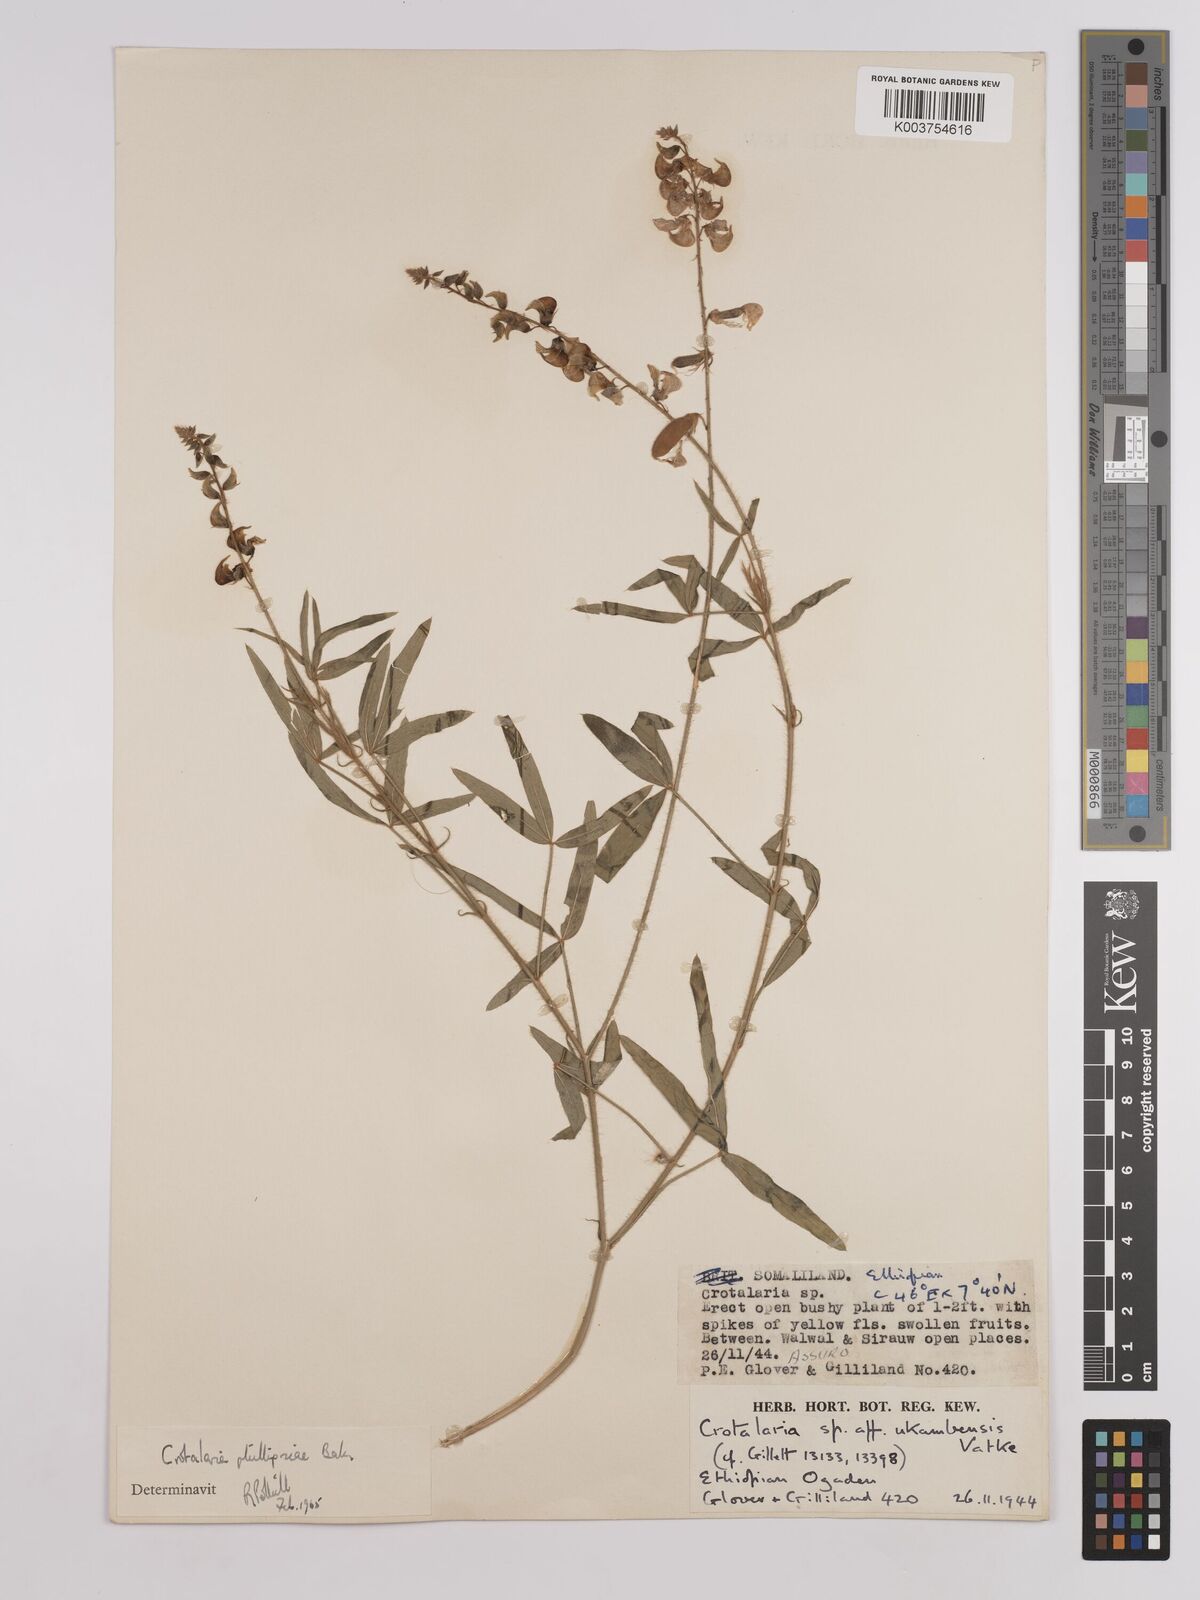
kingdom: Plantae
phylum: Tracheophyta
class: Magnoliopsida
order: Fabales
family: Fabaceae
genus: Crotalaria
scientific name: Crotalaria phillipsiae
